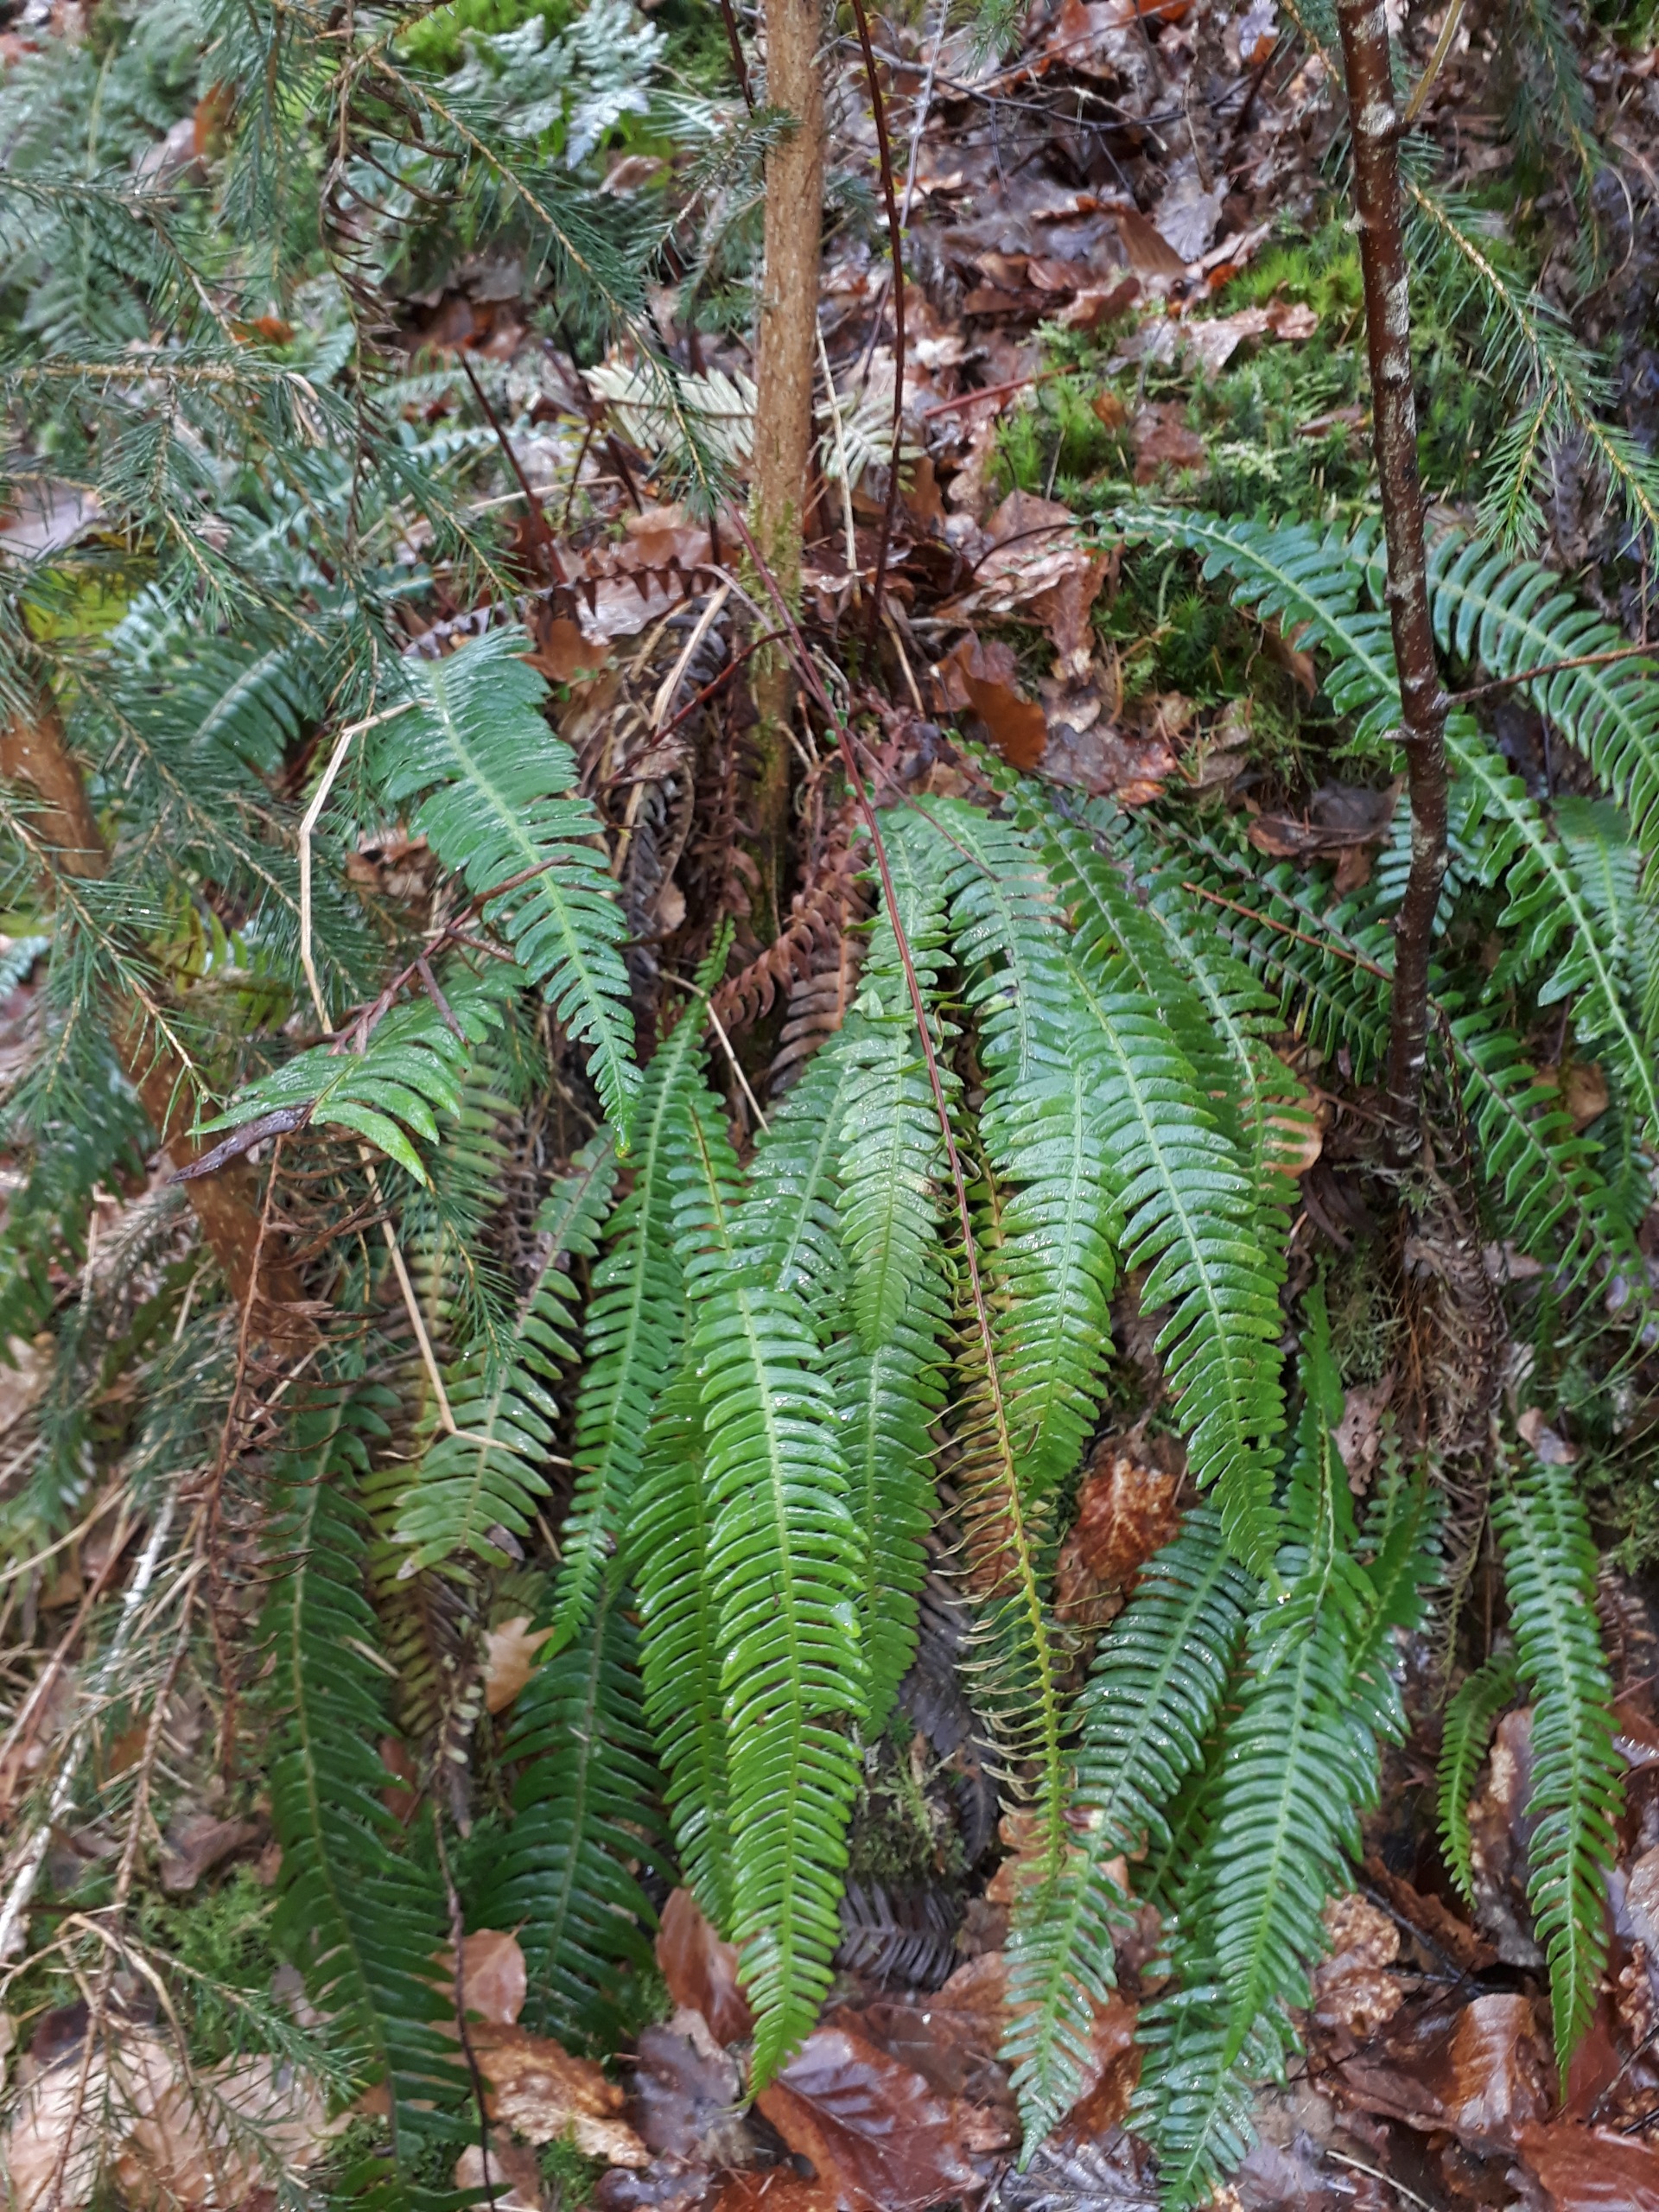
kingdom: Plantae
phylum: Tracheophyta
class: Polypodiopsida
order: Polypodiales
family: Blechnaceae
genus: Struthiopteris
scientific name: Struthiopteris spicant
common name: Kambregne
